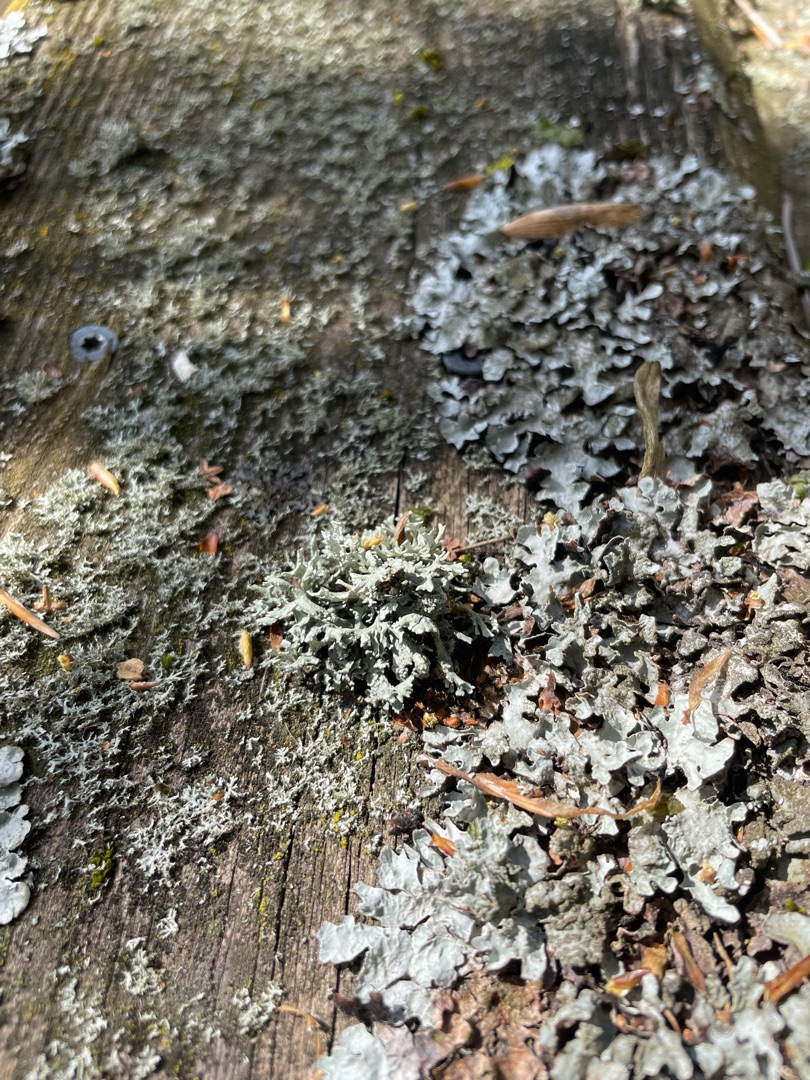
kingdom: Fungi
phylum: Ascomycota
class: Lecanoromycetes
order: Lecanorales
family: Parmeliaceae
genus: Evernia
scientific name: Evernia prunastri
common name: Almindelig slåenlav
